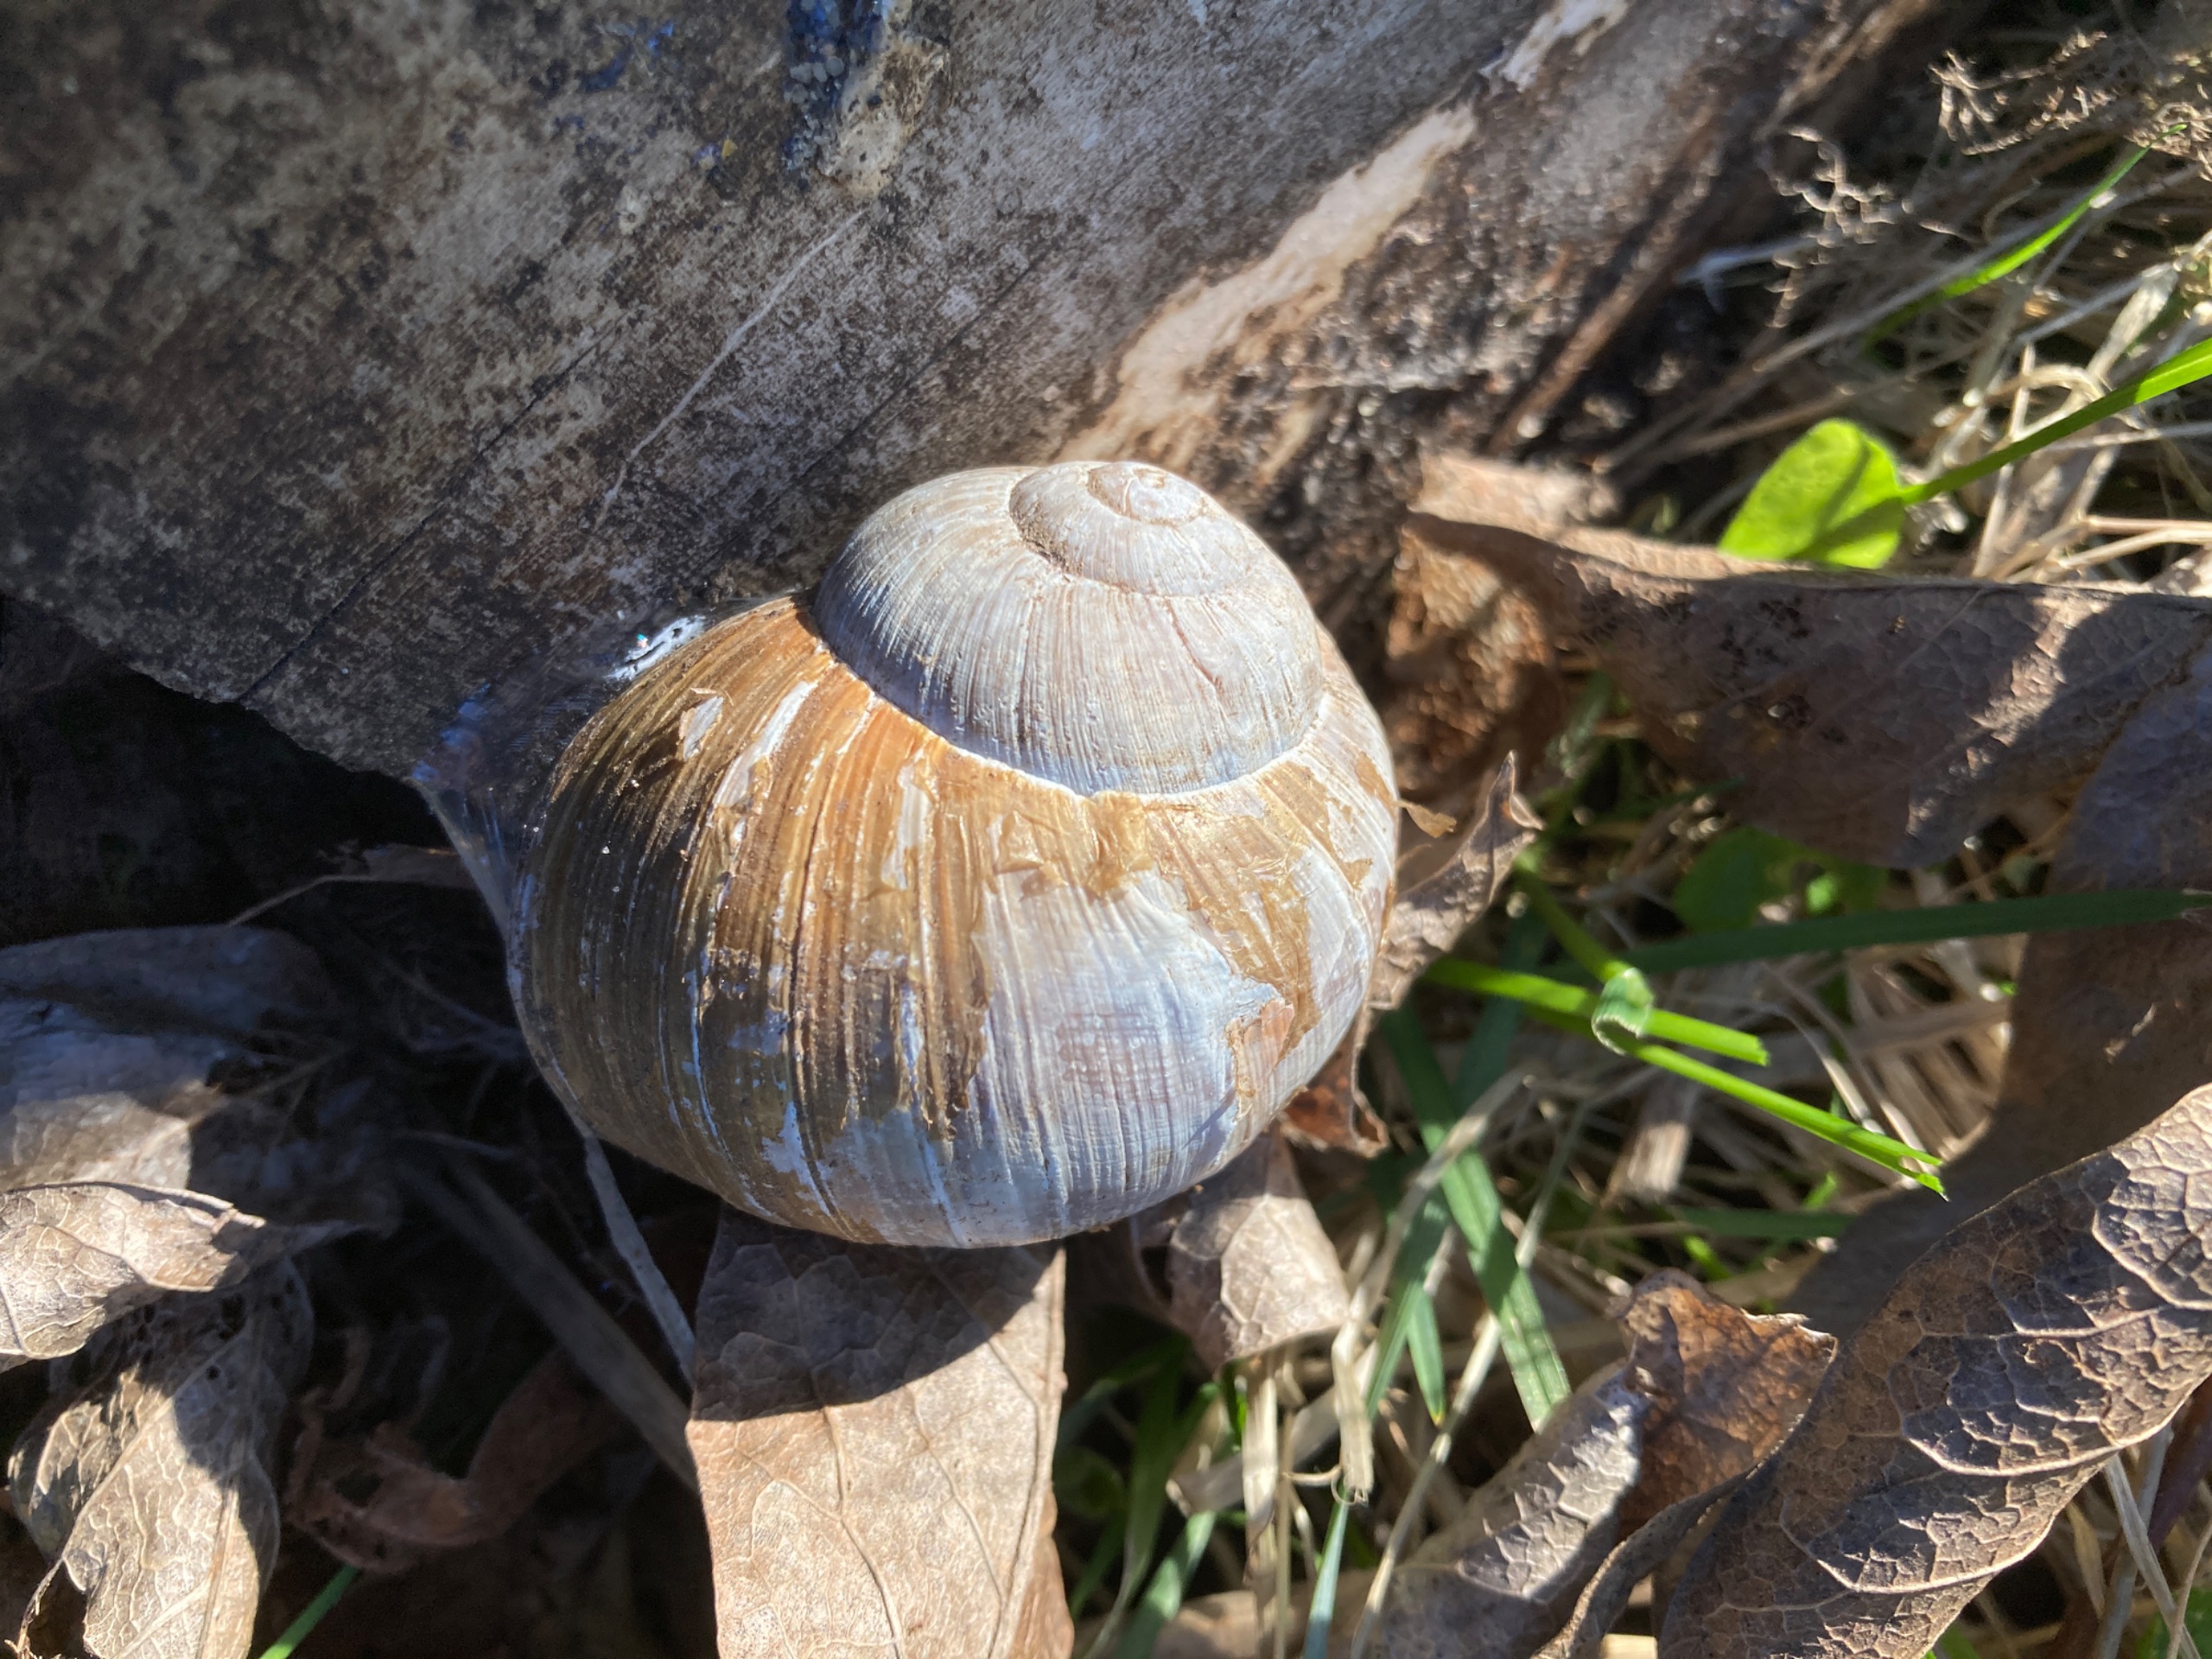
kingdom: Animalia
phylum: Mollusca
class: Gastropoda
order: Stylommatophora
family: Helicidae
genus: Helix
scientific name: Helix pomatia
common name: Vinbjergsnegl
